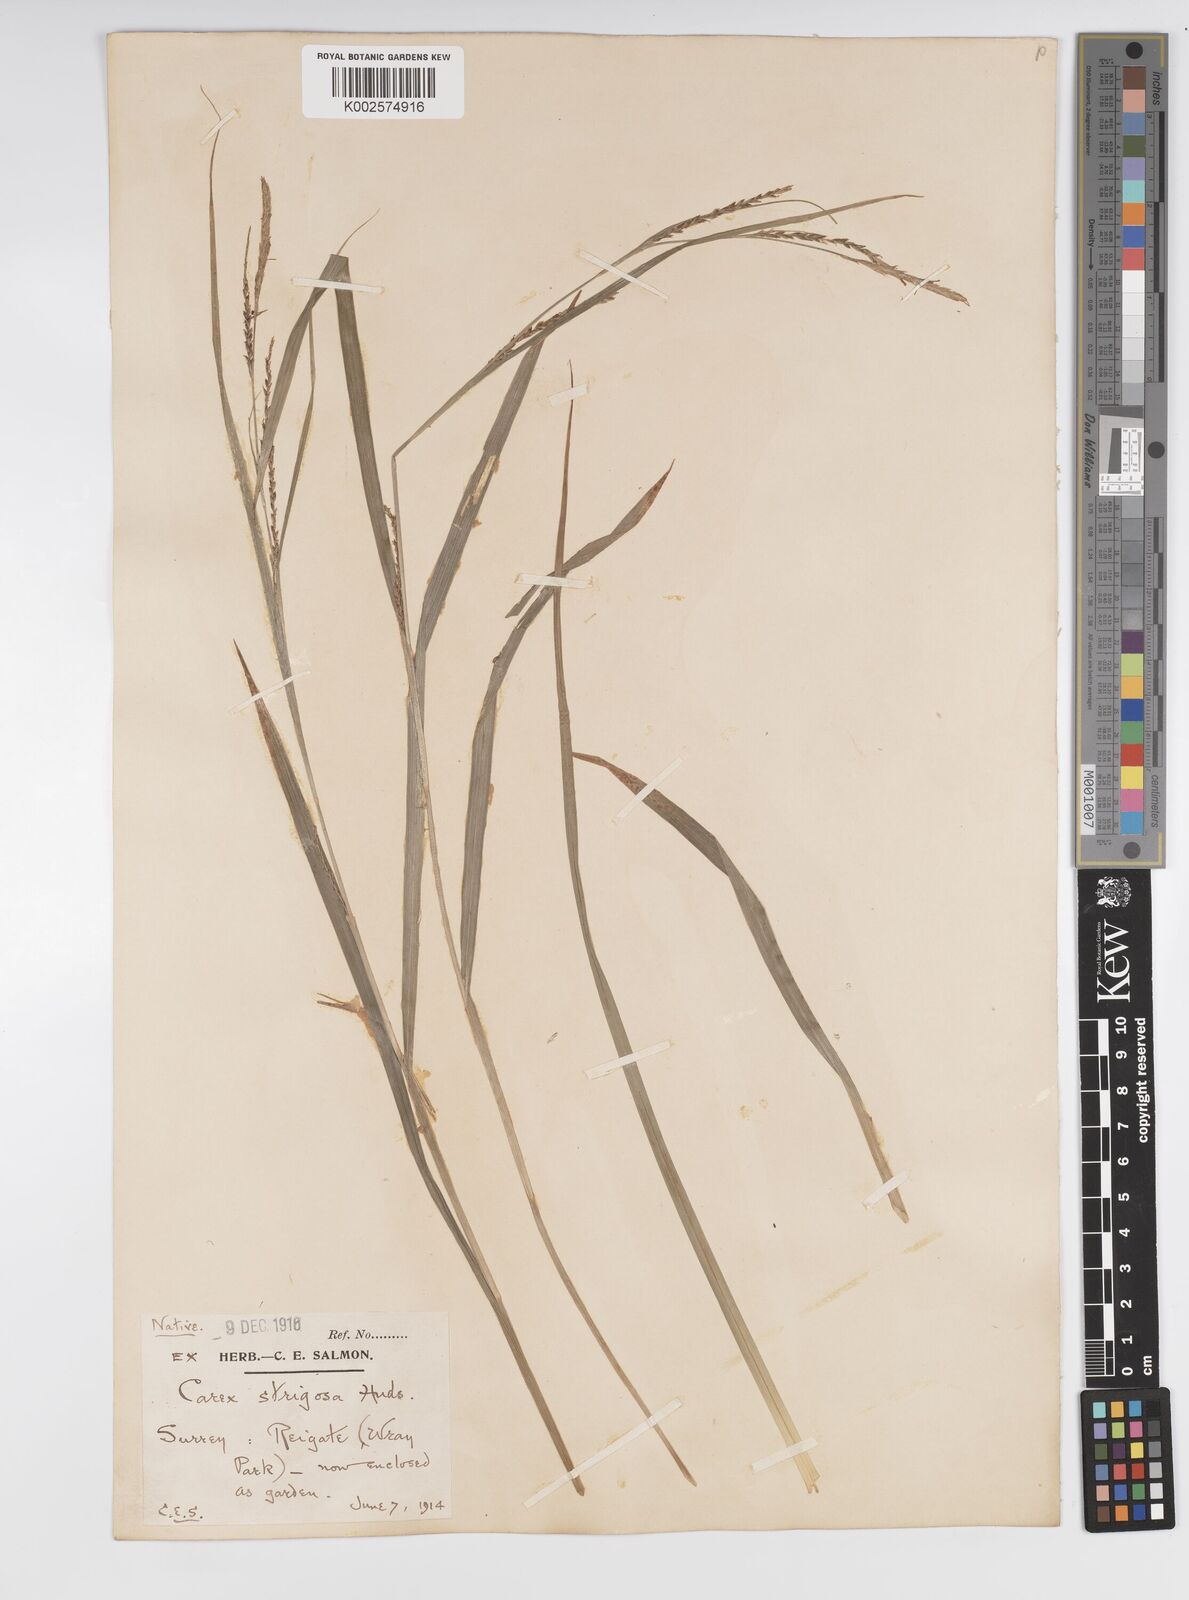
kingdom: Plantae
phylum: Tracheophyta
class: Liliopsida
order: Poales
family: Cyperaceae
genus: Carex
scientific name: Carex strigosa
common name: Thin-spiked wood-sedge
